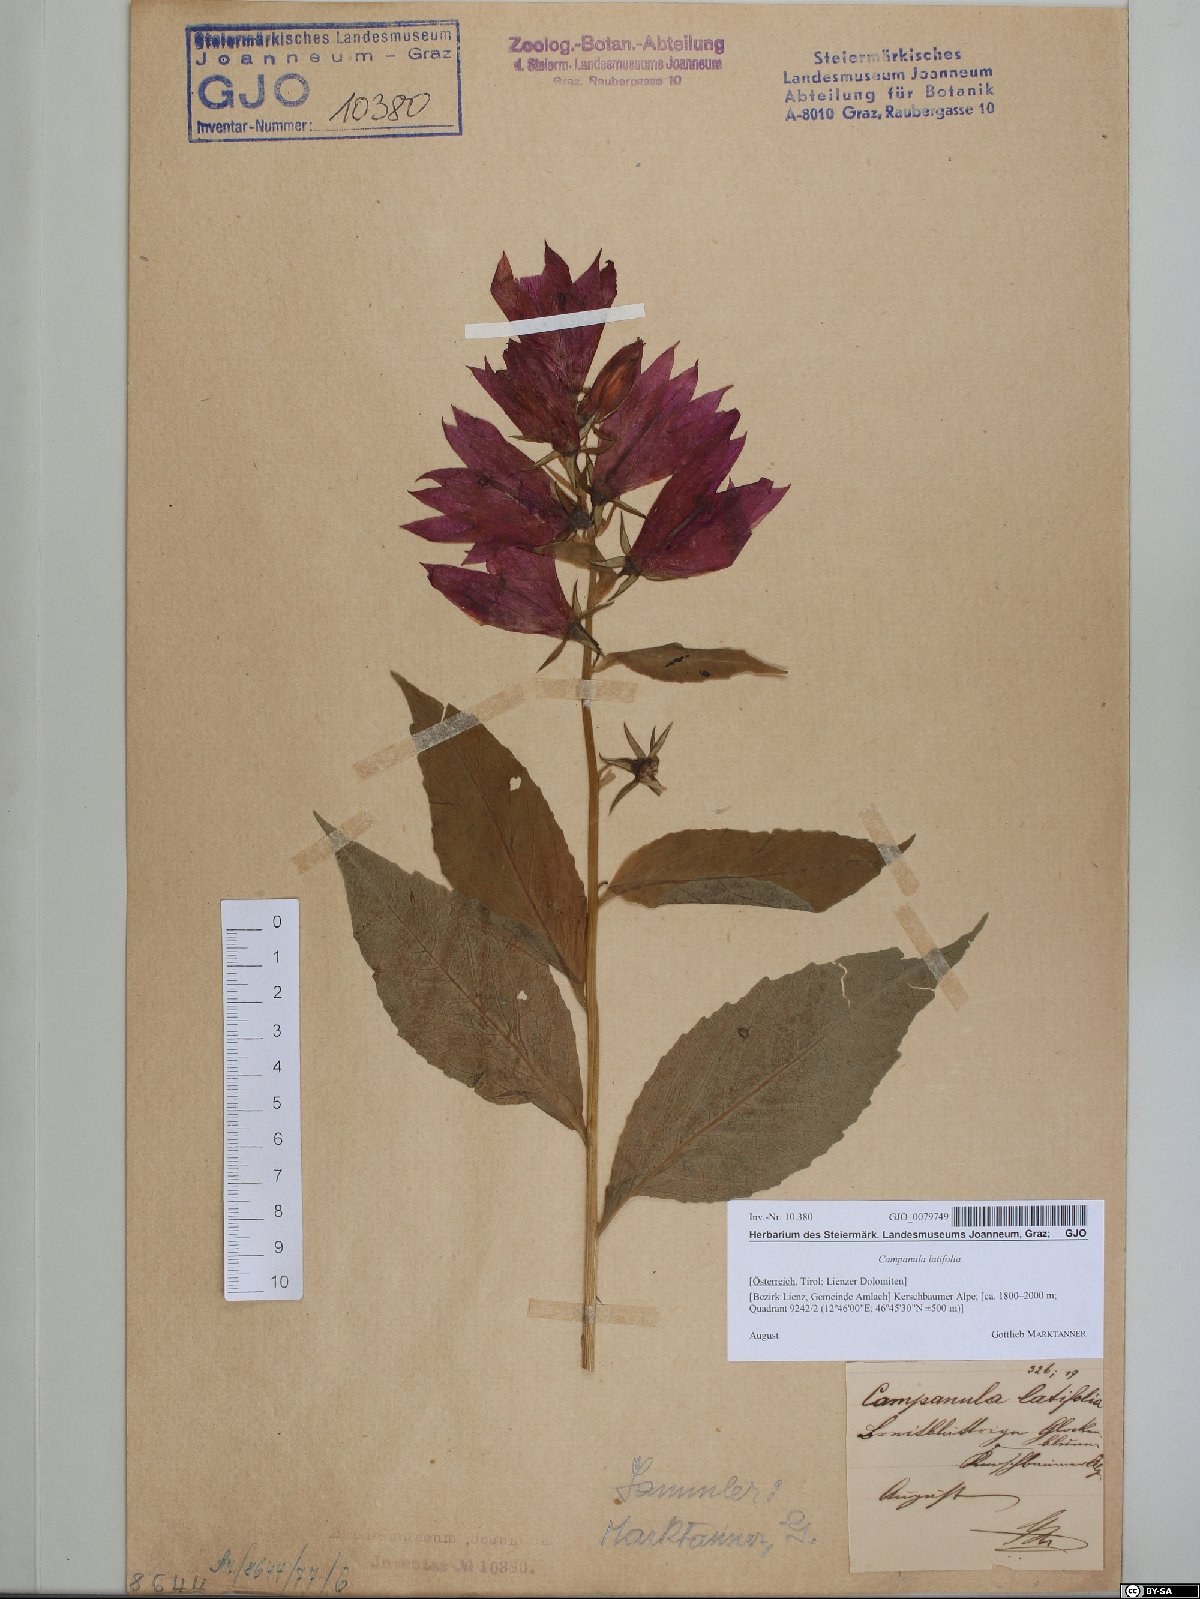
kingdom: Plantae
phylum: Tracheophyta
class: Magnoliopsida
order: Asterales
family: Campanulaceae
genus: Campanula
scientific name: Campanula latifolia
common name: Giant bellflower
